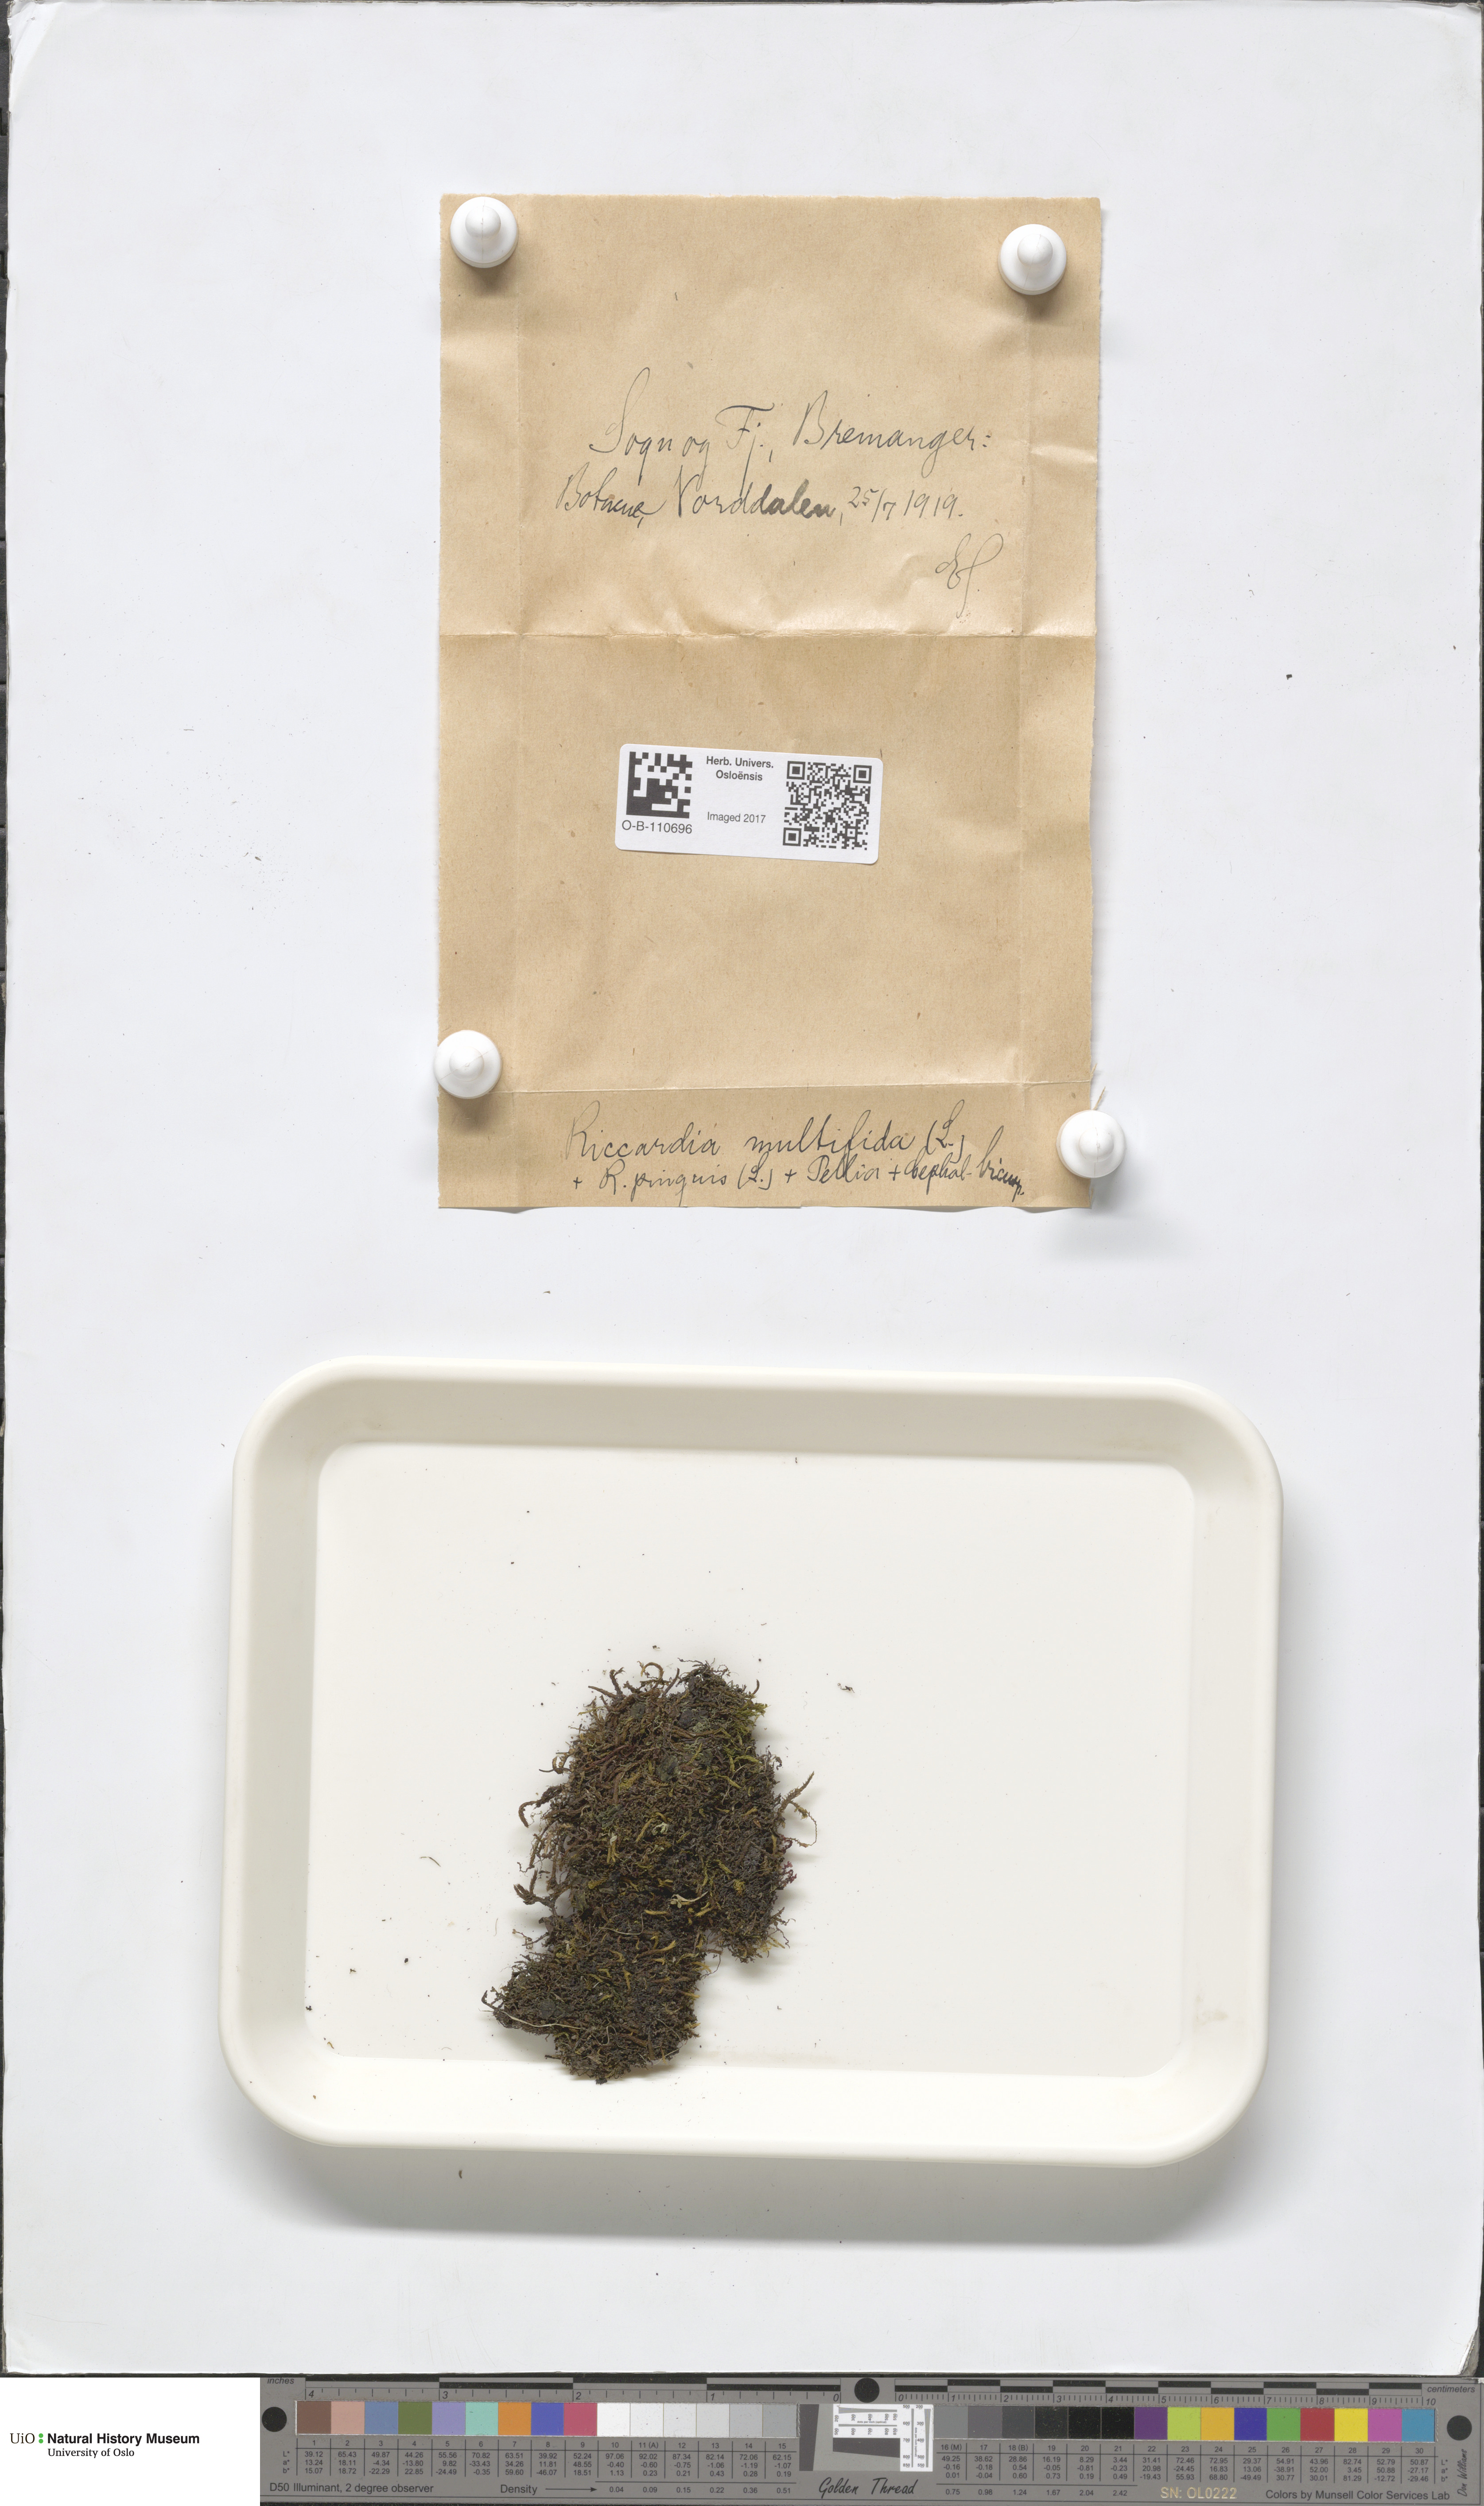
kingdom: Plantae
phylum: Marchantiophyta
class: Jungermanniopsida
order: Metzgeriales
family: Aneuraceae
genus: Riccardia
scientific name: Riccardia palmata
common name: Palmate germanderwort
